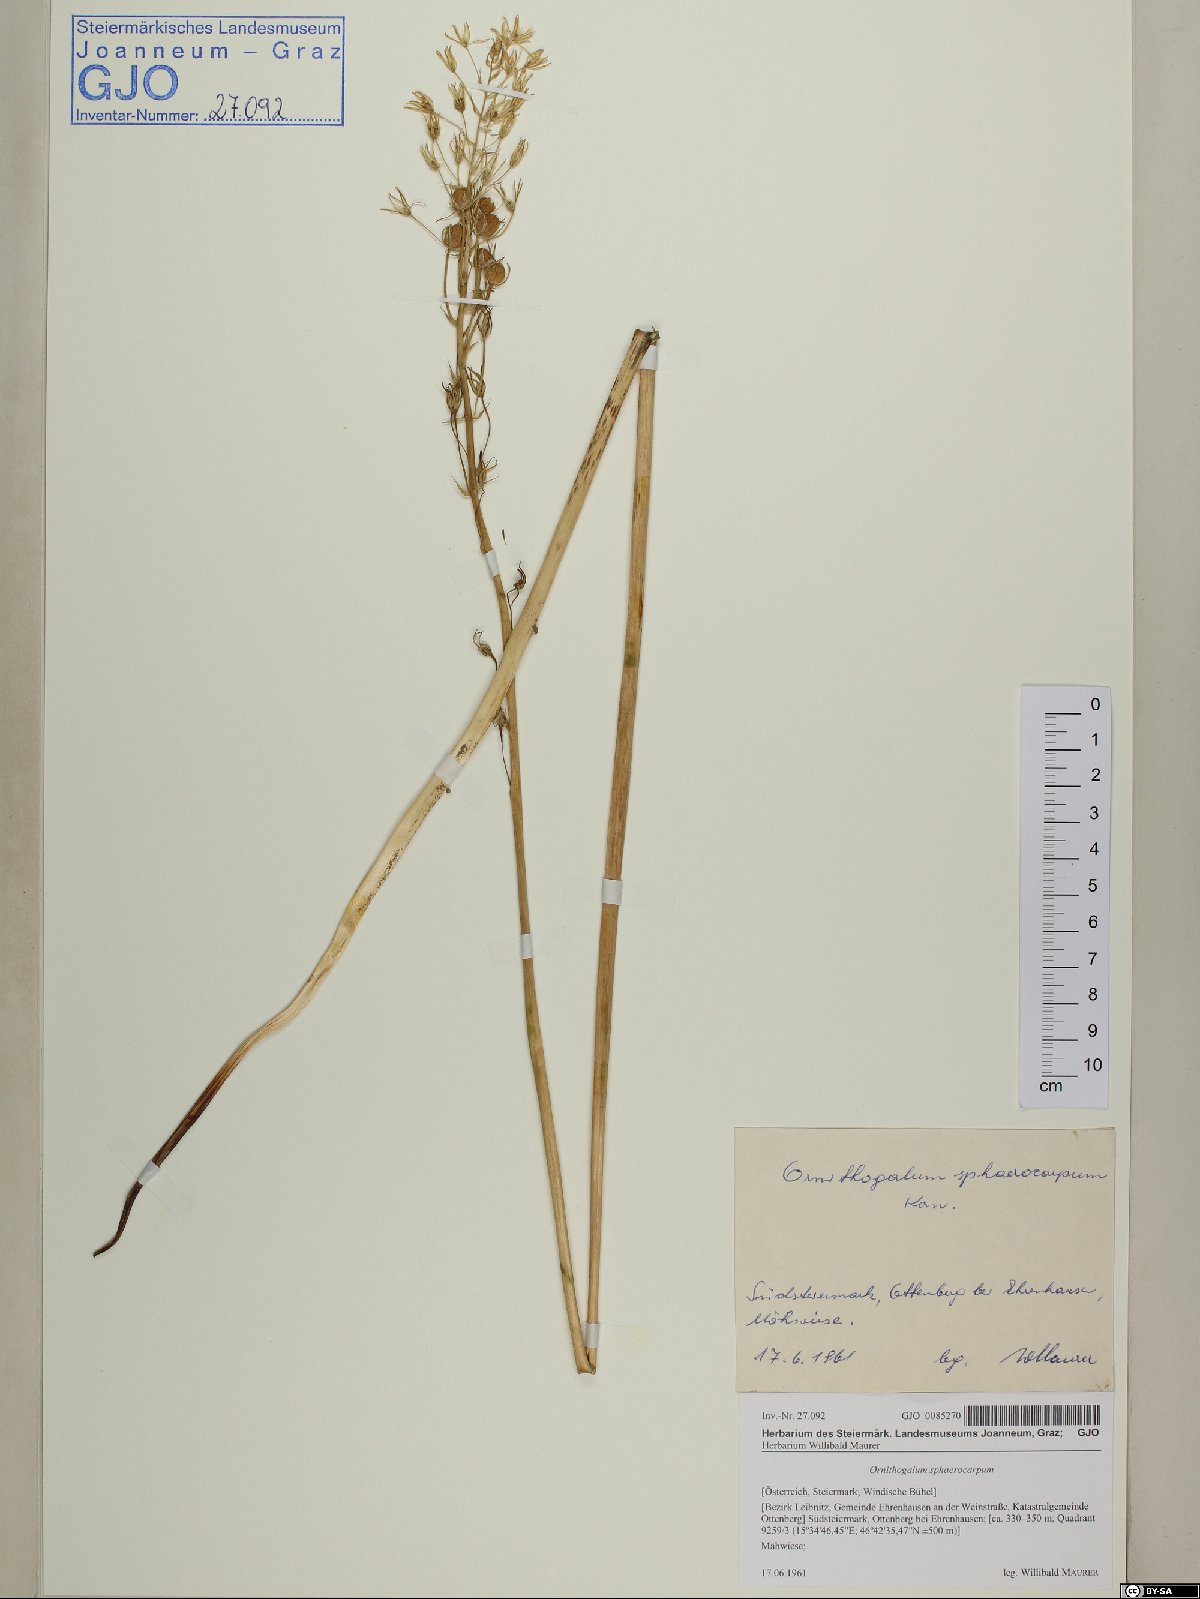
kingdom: Plantae
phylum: Tracheophyta
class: Liliopsida
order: Asparagales
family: Asparagaceae
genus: Ornithogalum
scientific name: Ornithogalum sphaerocarpum
